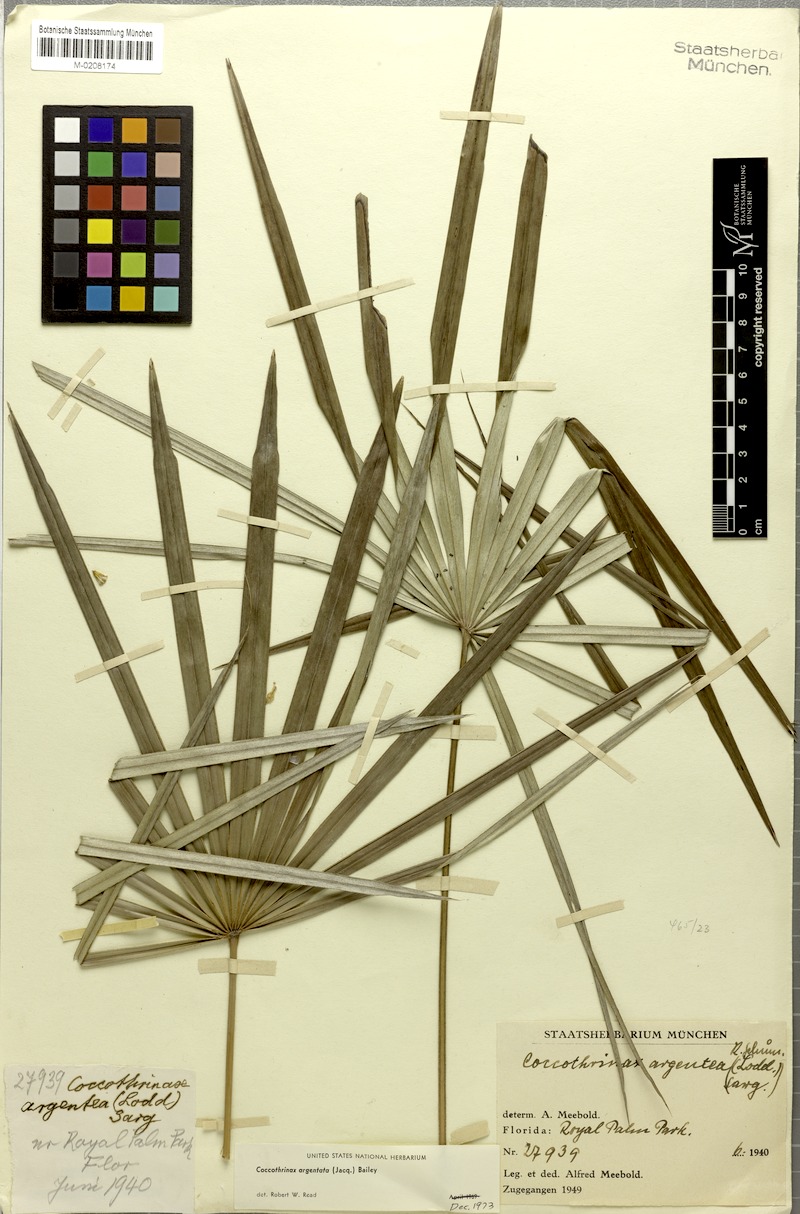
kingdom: Plantae
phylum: Tracheophyta
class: Liliopsida
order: Arecales
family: Arecaceae
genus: Coccothrinax
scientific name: Coccothrinax argentata
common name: Florida silver palm
